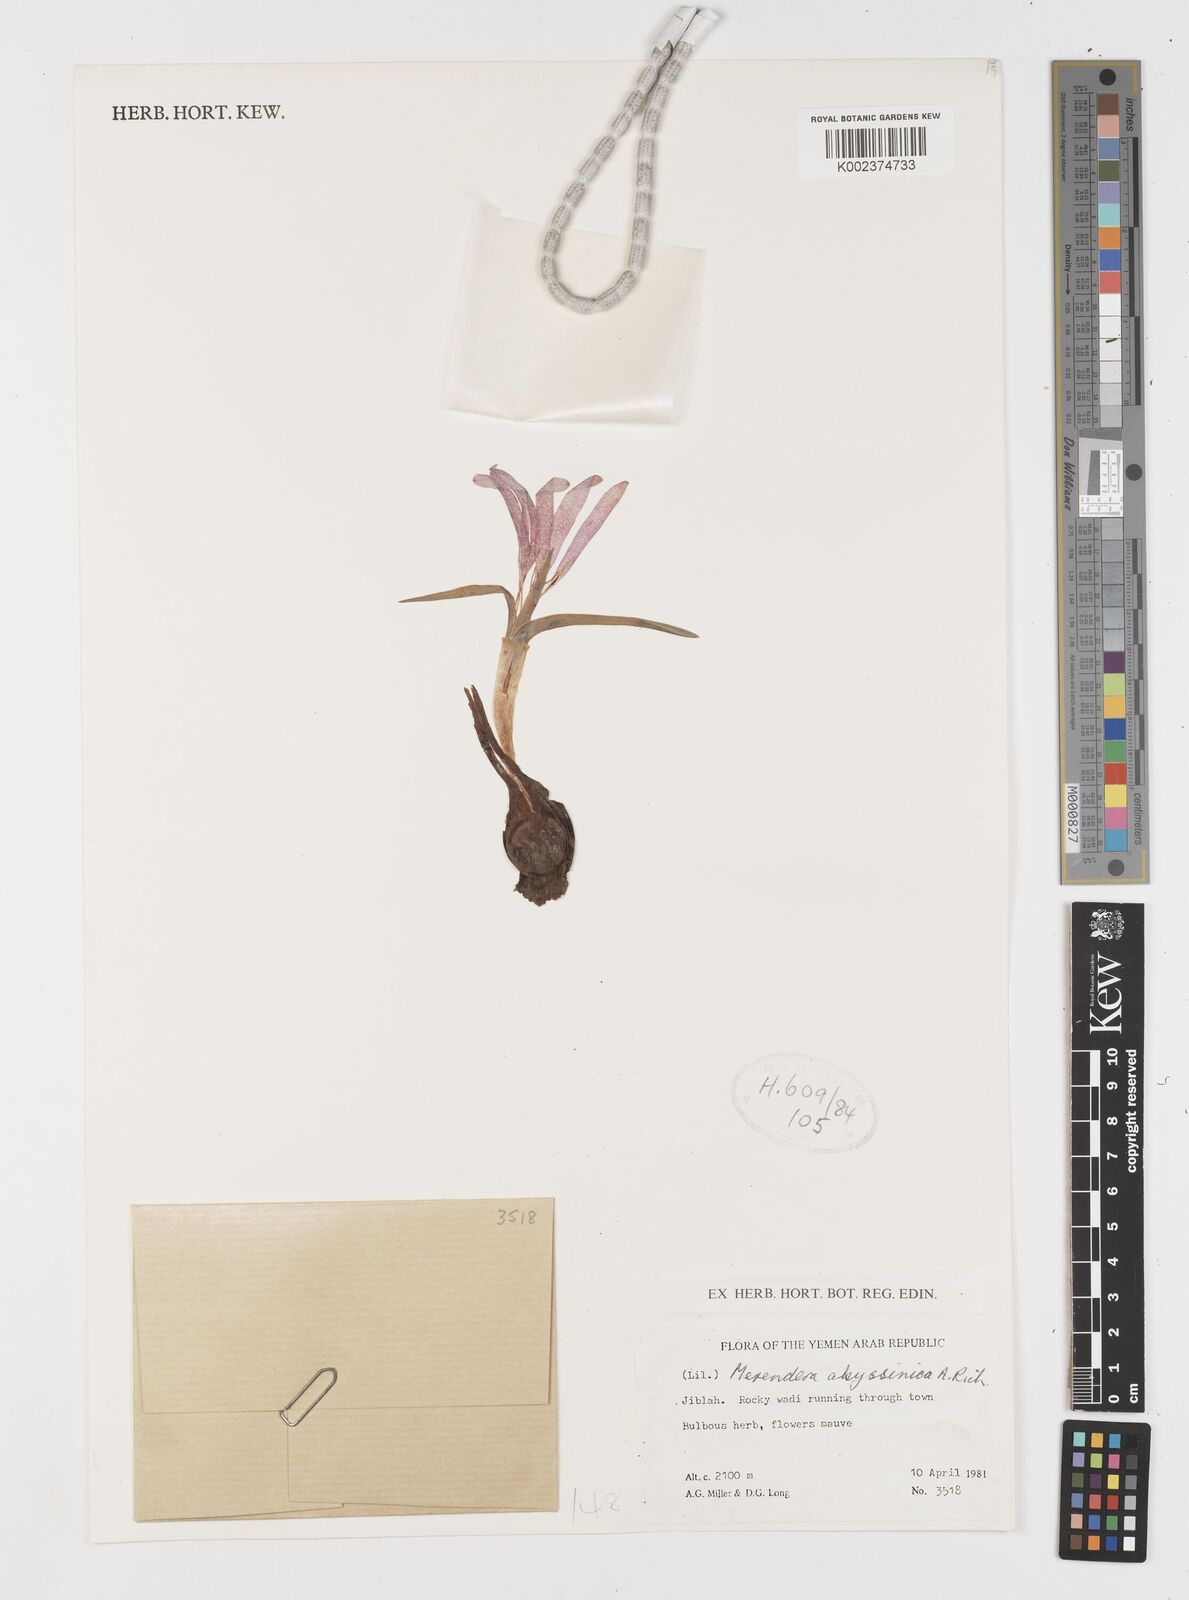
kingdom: Plantae
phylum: Tracheophyta
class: Liliopsida
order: Liliales
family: Colchicaceae
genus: Colchicum
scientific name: Colchicum
